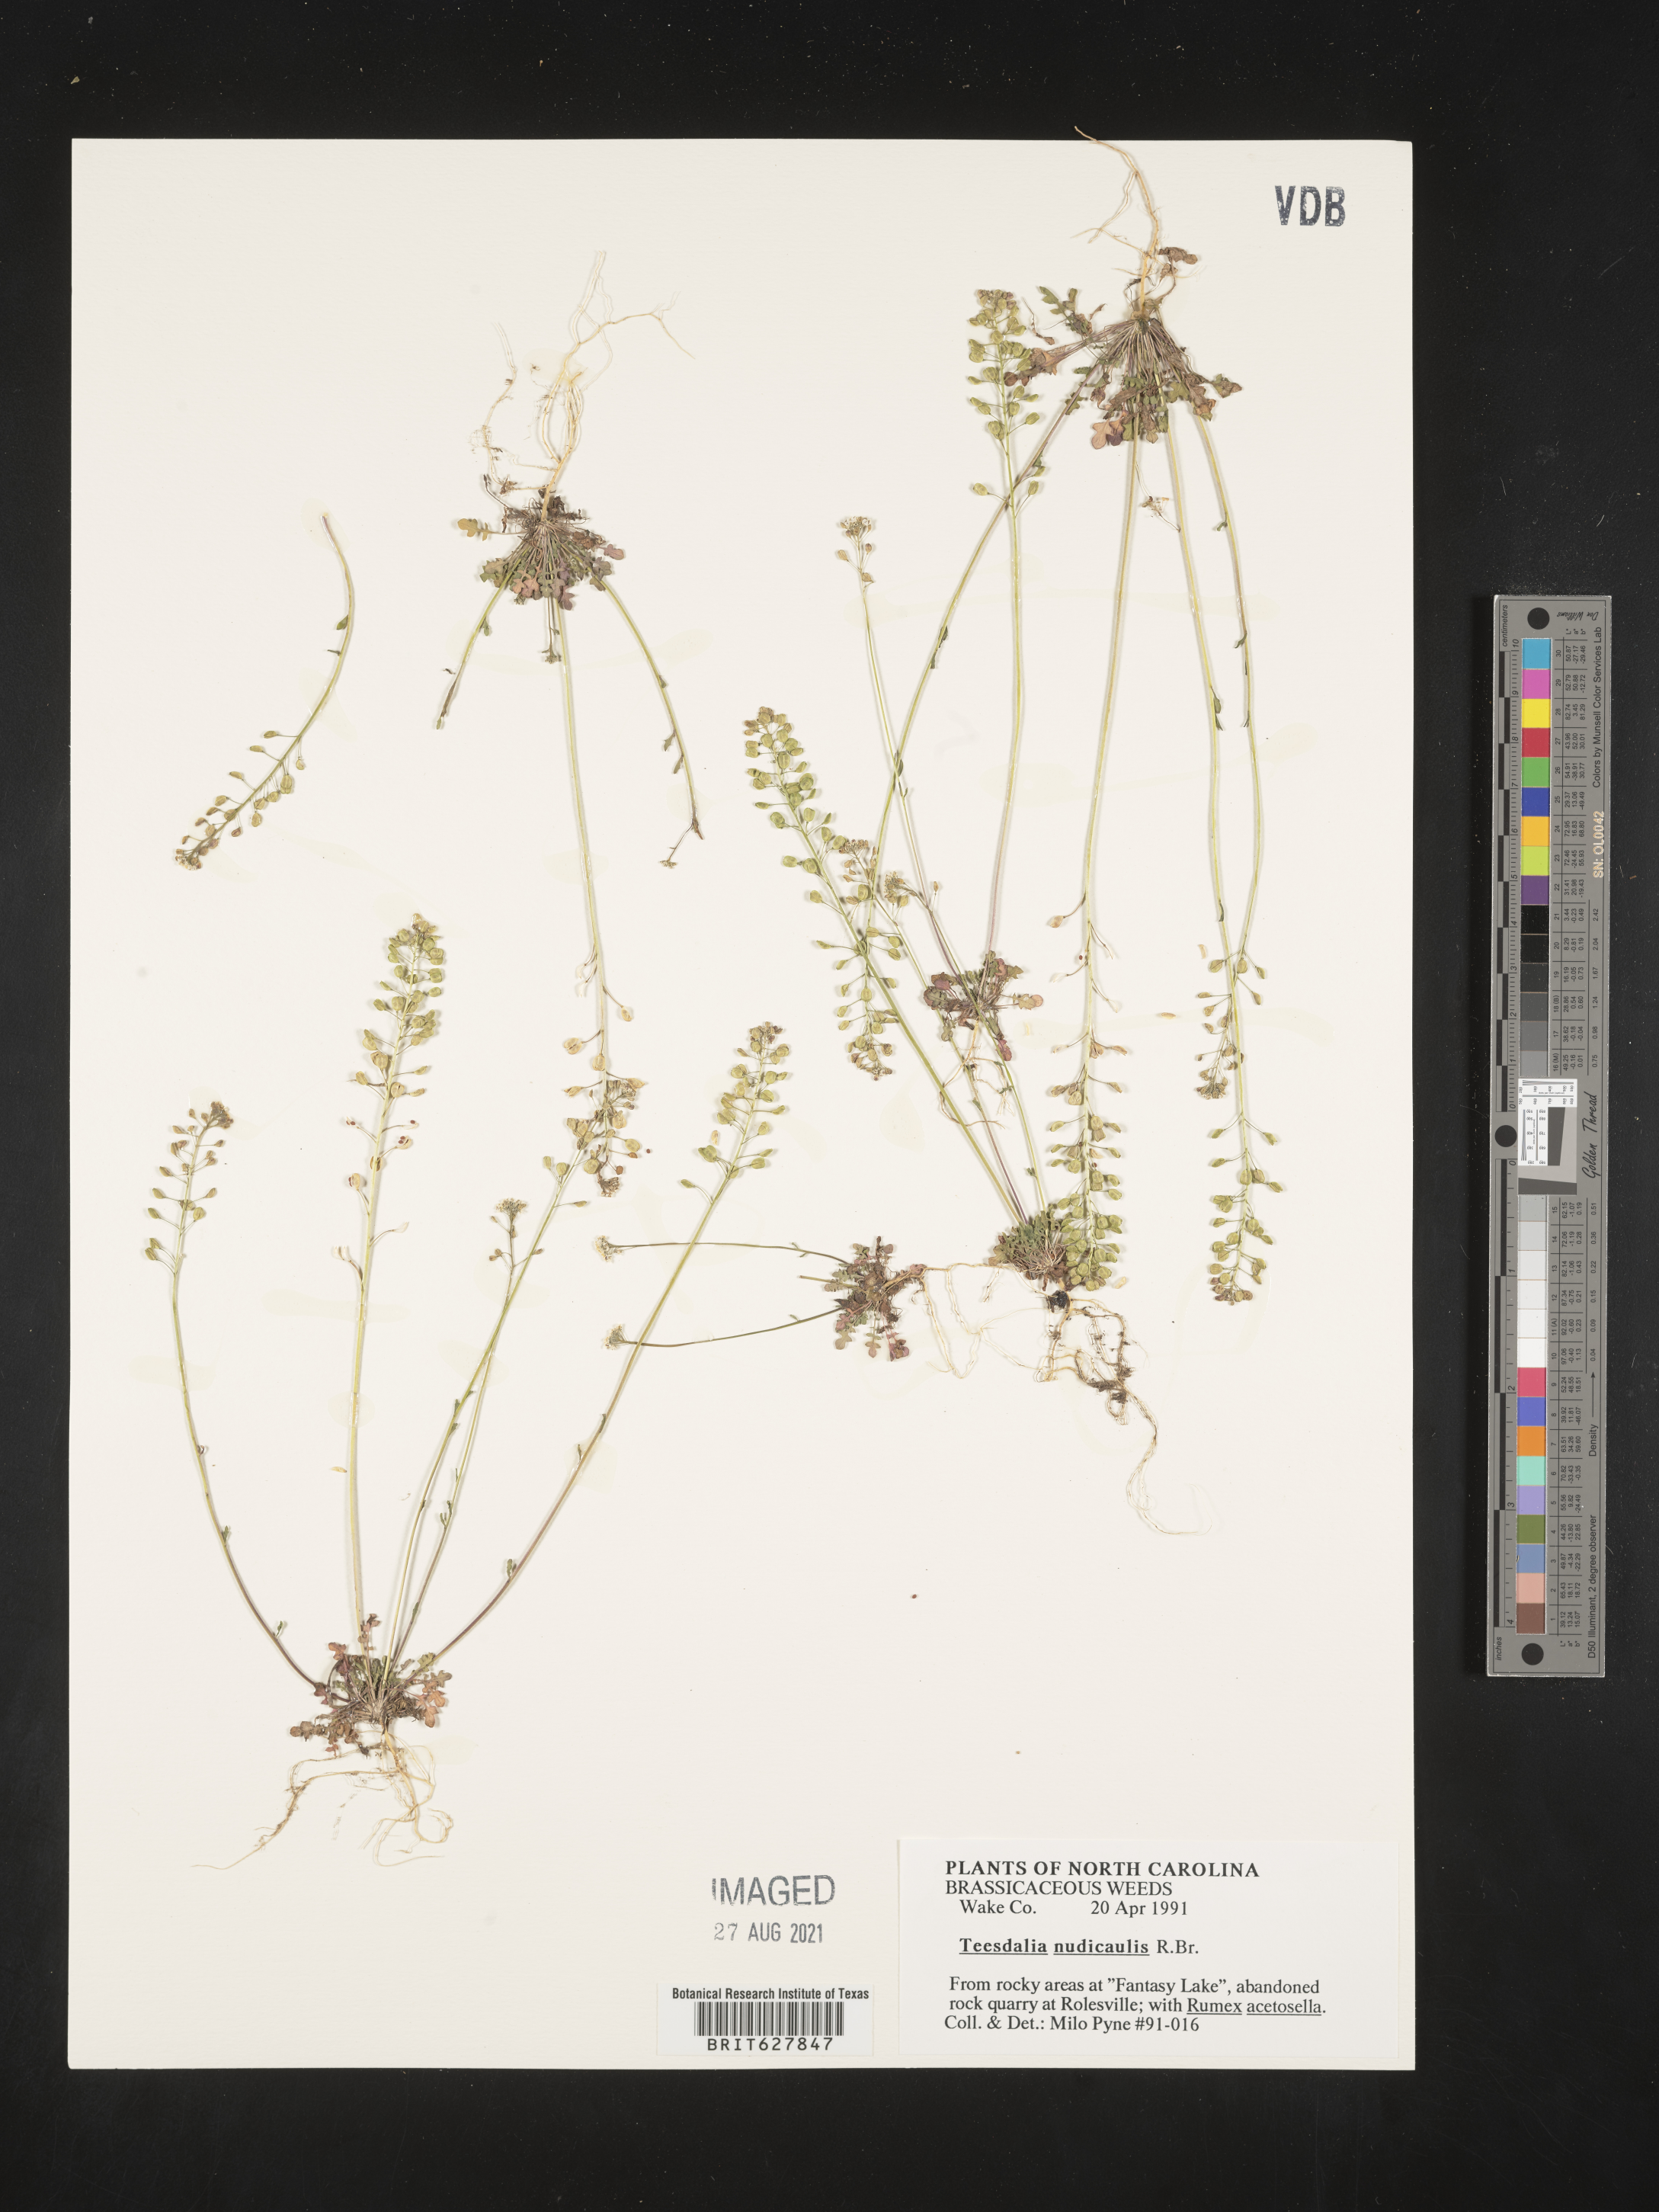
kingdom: Plantae
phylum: Tracheophyta
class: Magnoliopsida
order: Brassicales
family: Brassicaceae
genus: Teesdalia
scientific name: Teesdalia nudicaulis
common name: Shepherd's cress
